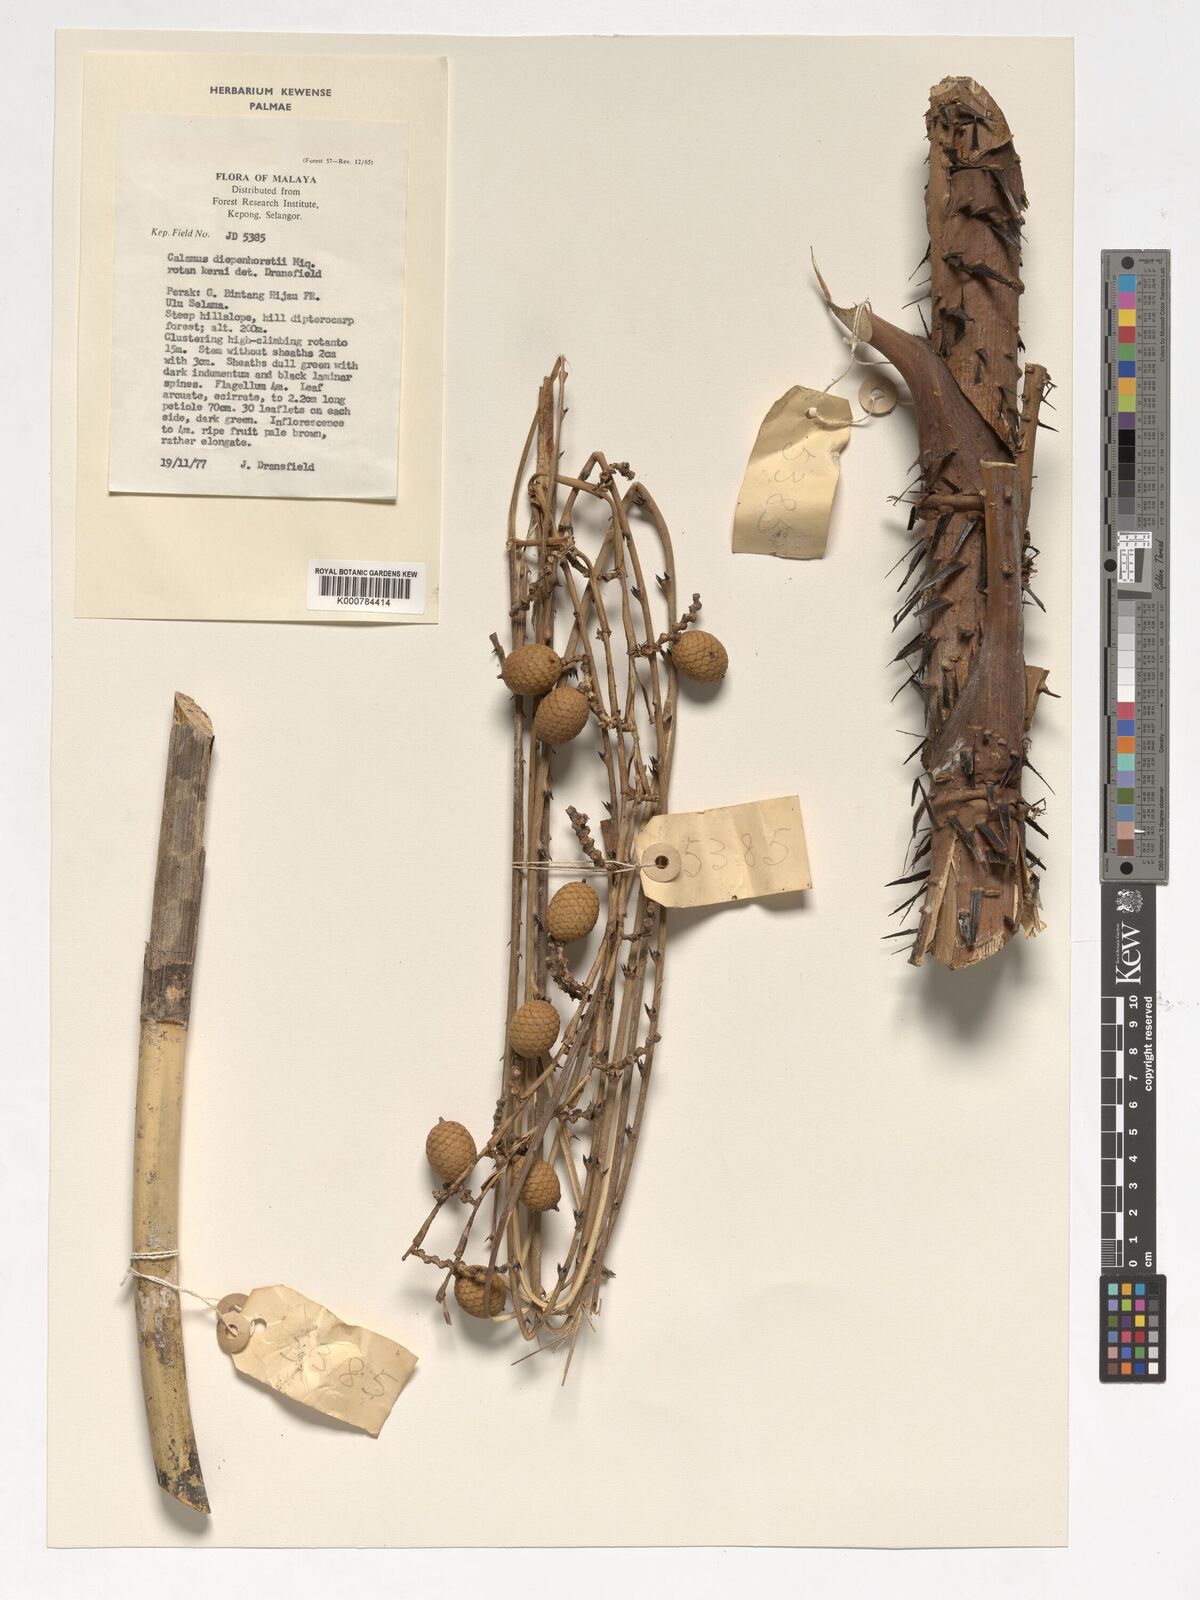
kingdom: Plantae
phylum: Tracheophyta
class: Liliopsida
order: Arecales
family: Arecaceae
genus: Calamus
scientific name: Calamus diepenhorstii
